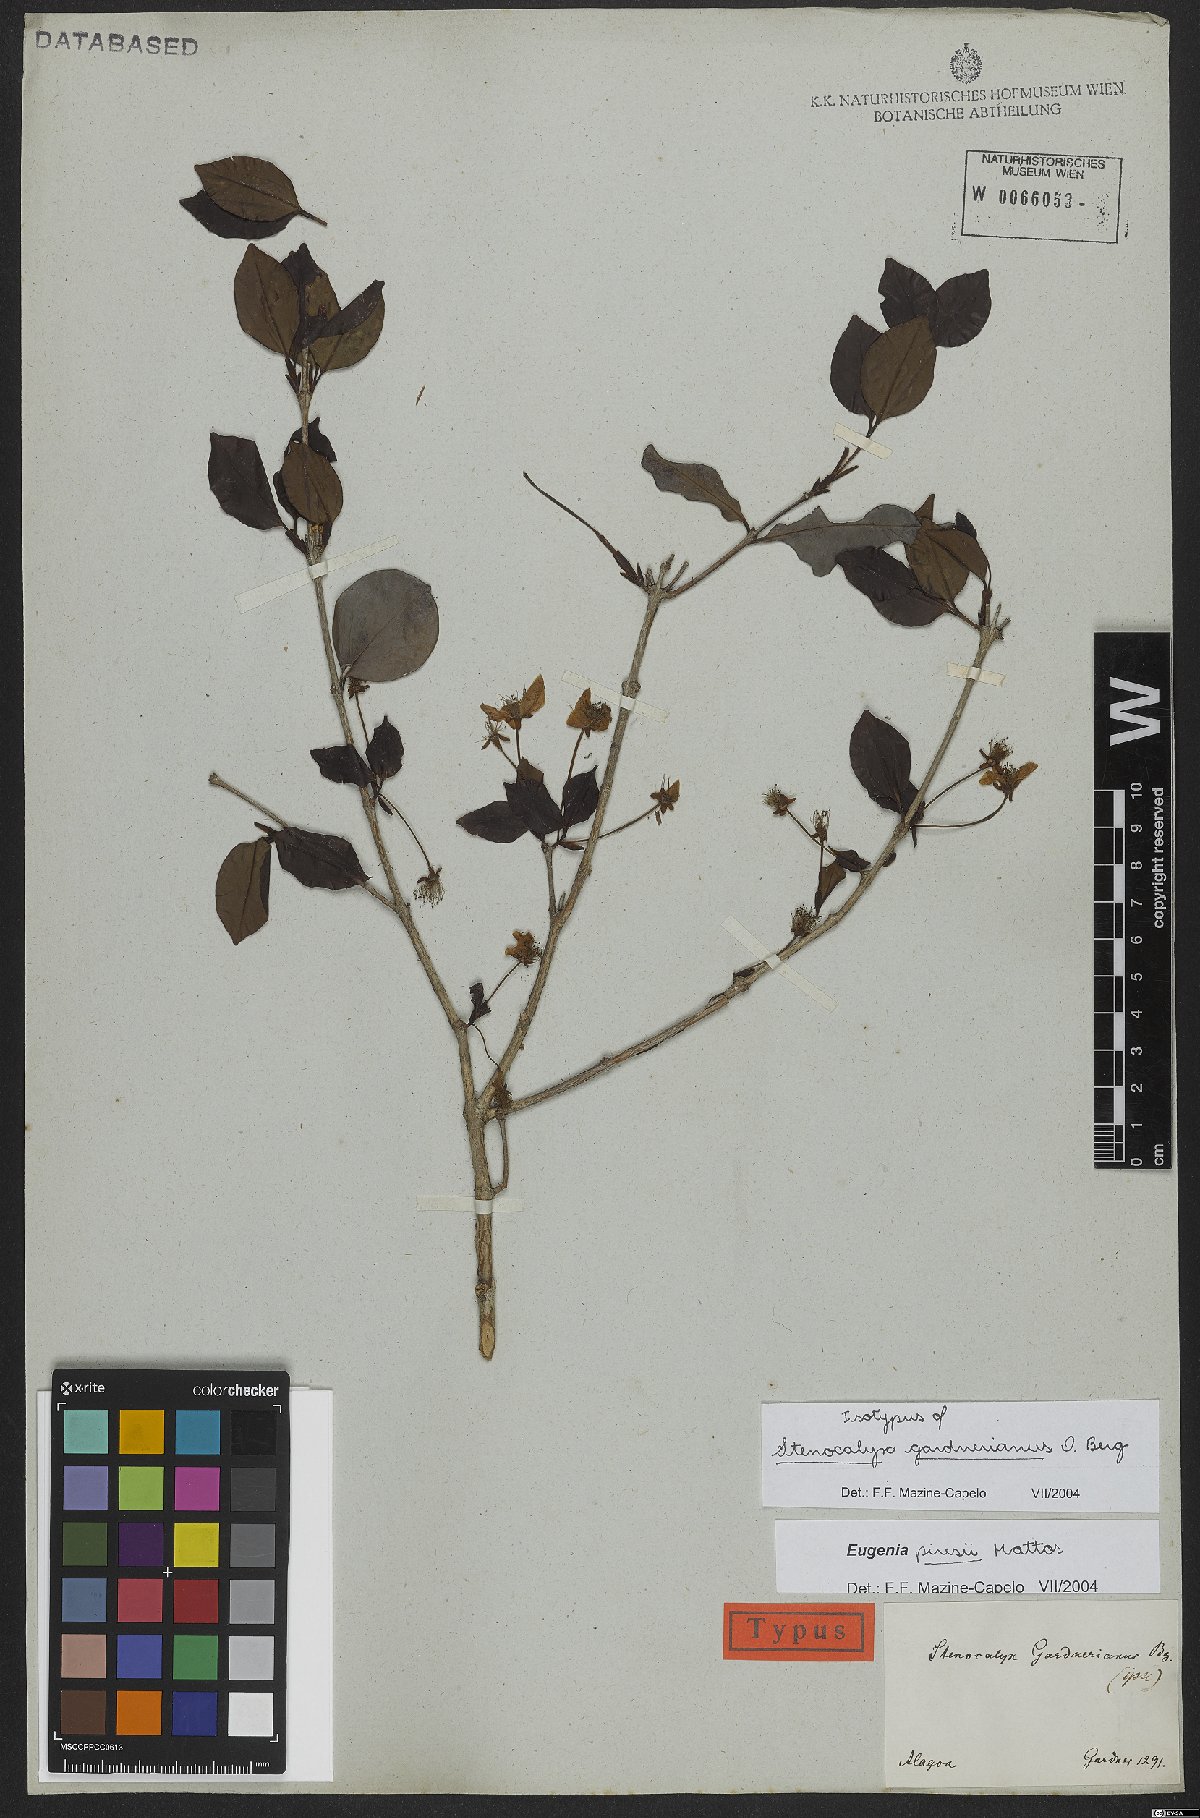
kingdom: Plantae
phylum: Tracheophyta
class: Magnoliopsida
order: Myrtales
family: Myrtaceae
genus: Eugenia
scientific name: Eugenia piresii
